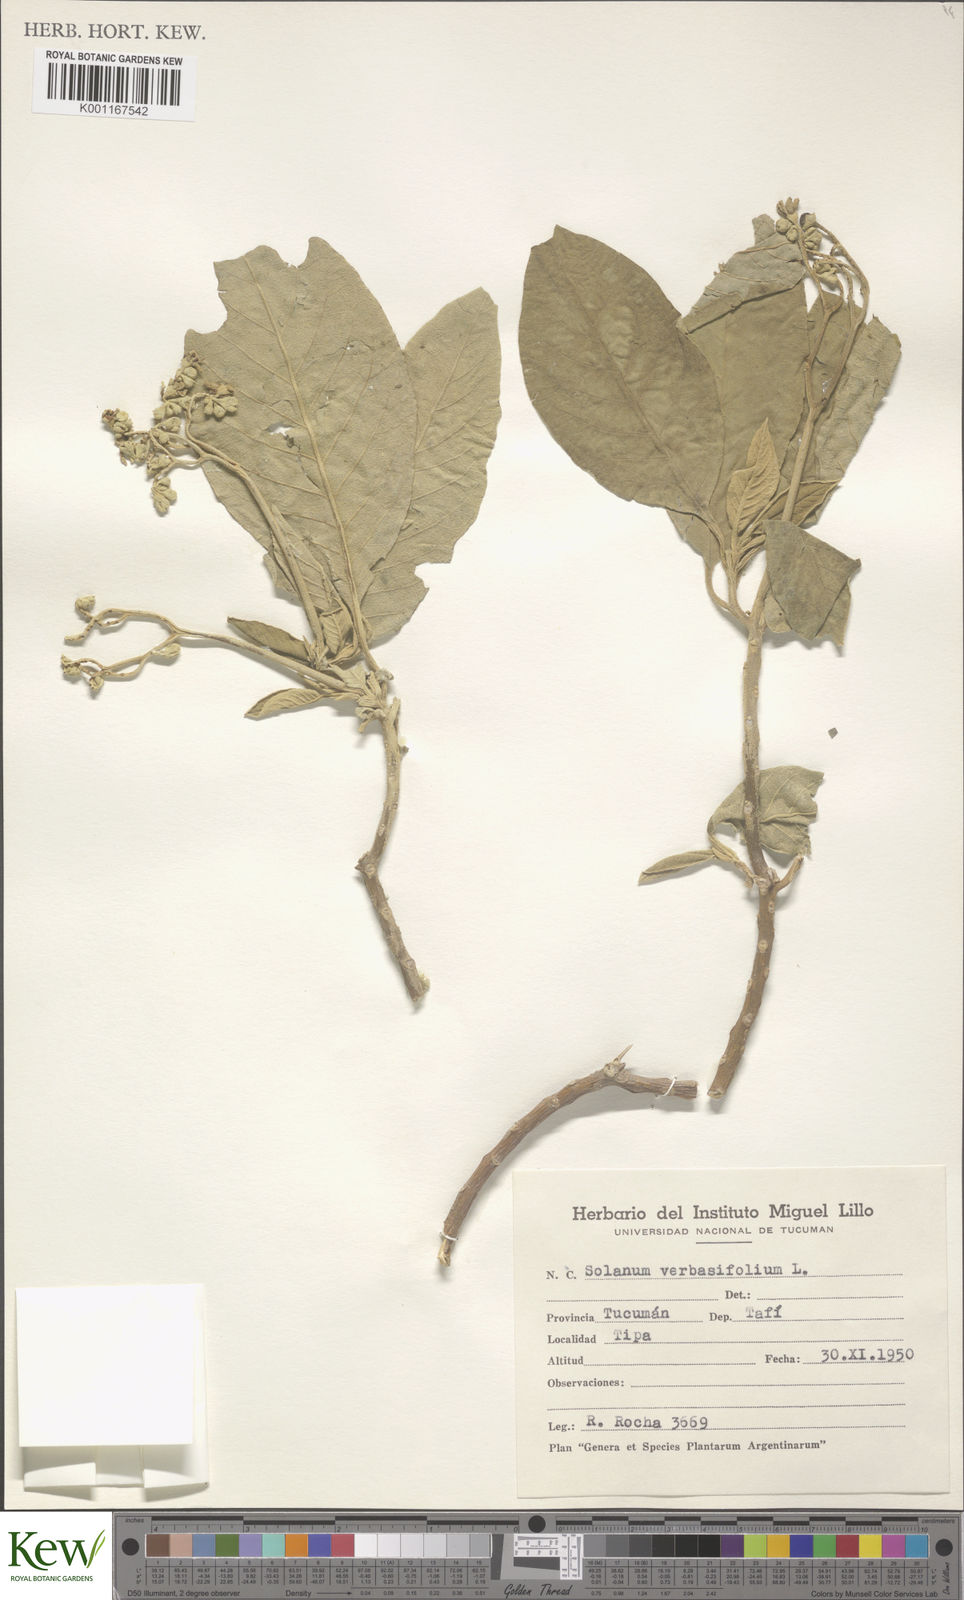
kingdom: Plantae
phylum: Tracheophyta
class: Magnoliopsida
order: Solanales
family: Solanaceae
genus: Solanum
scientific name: Solanum erianthum
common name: Tobacco-tree
